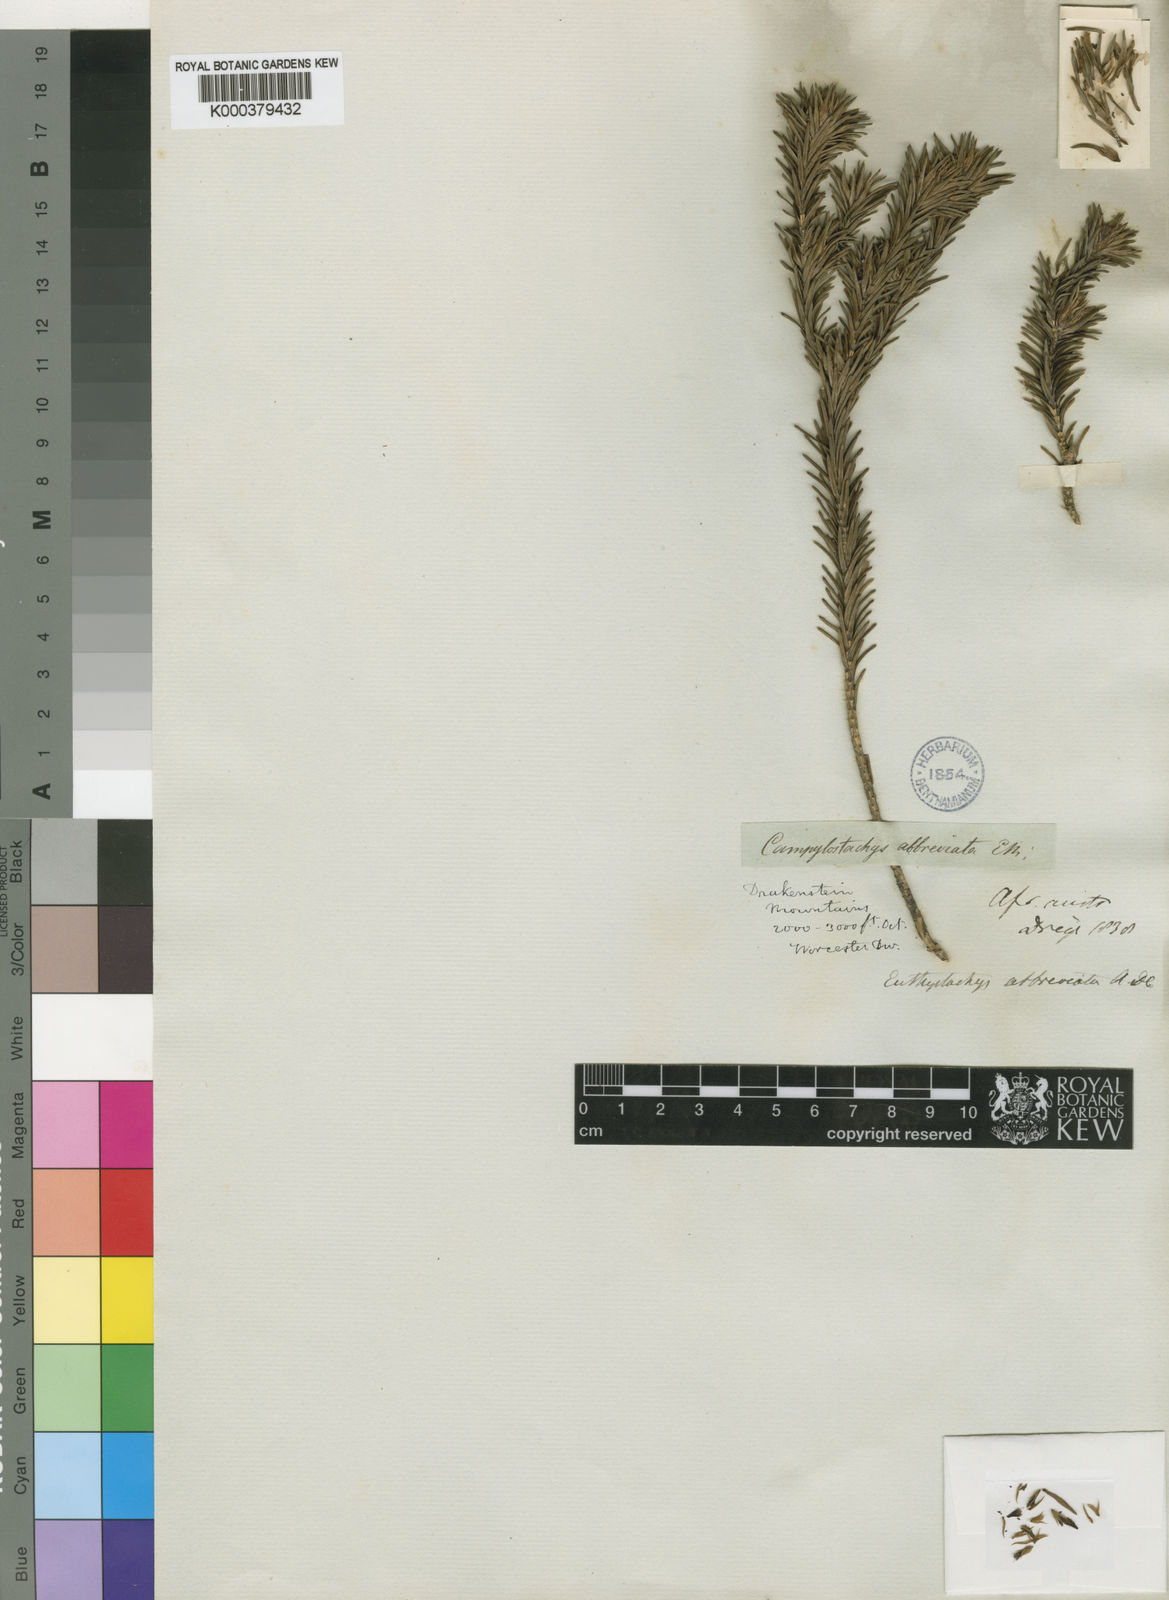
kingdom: Plantae
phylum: Tracheophyta
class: Magnoliopsida
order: Lamiales
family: Stilbaceae
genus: Euthystachys
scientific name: Euthystachys abbreviata
